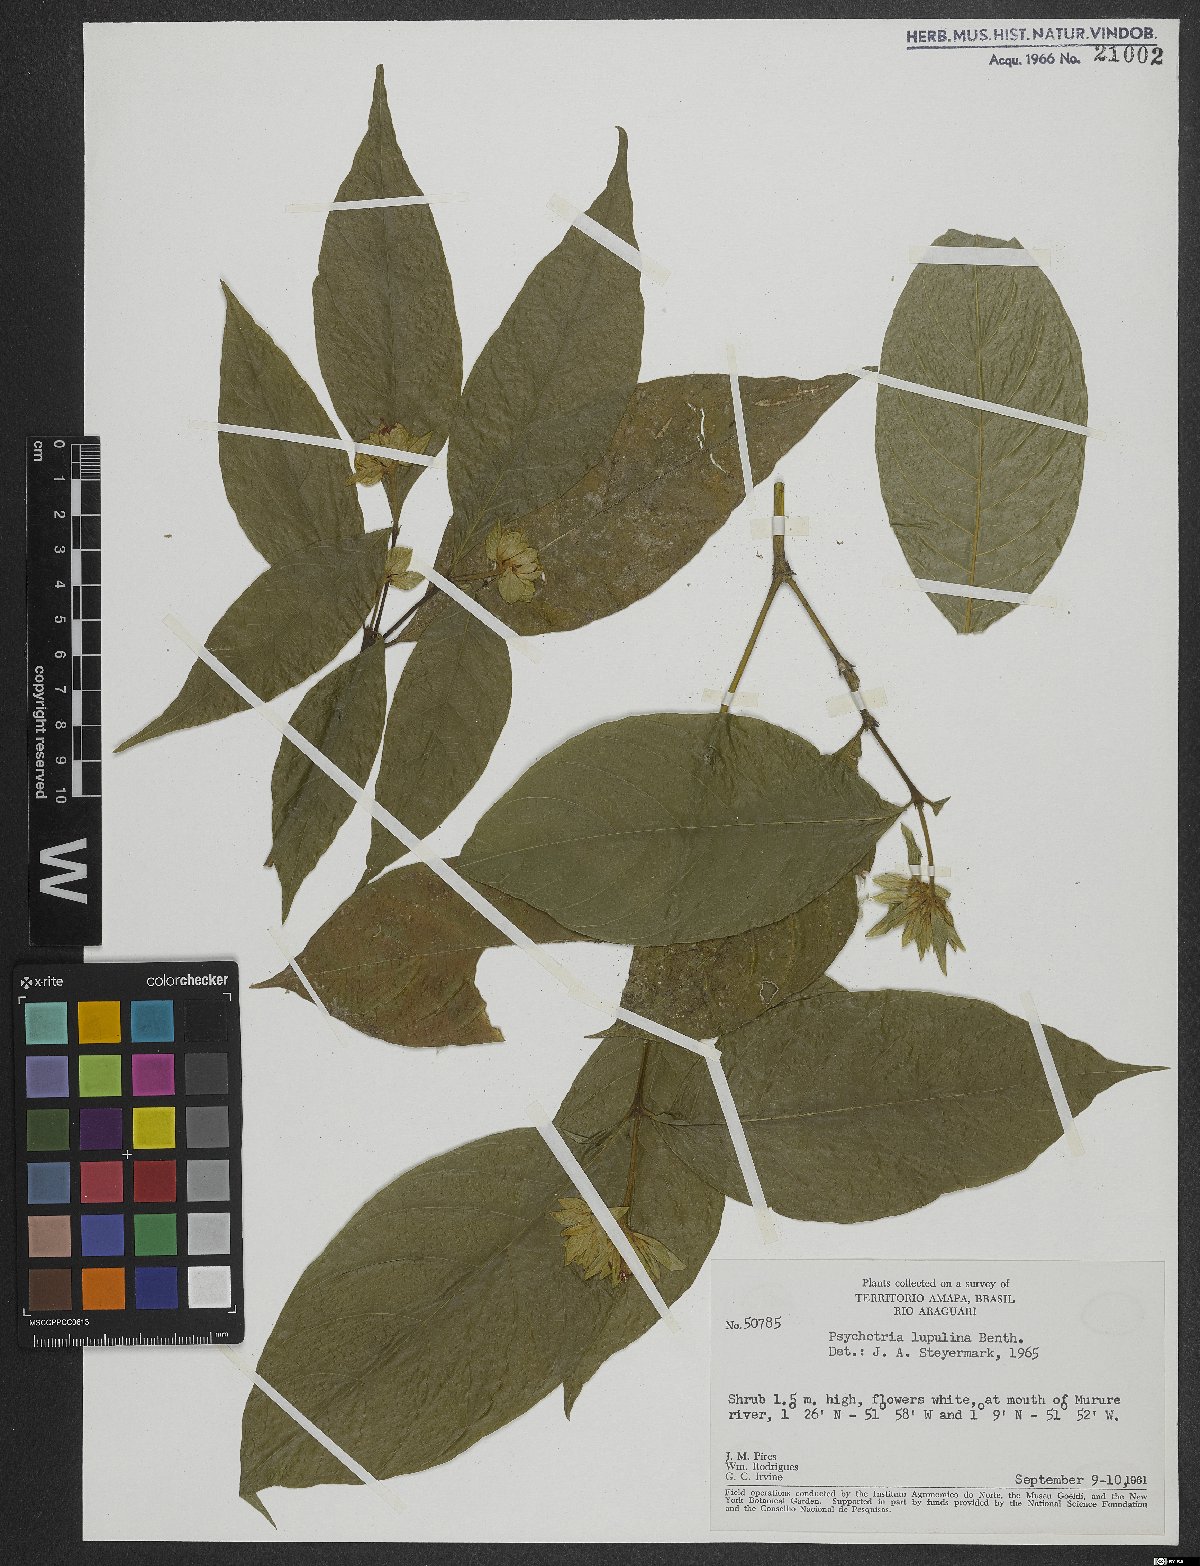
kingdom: Plantae
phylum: Tracheophyta
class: Magnoliopsida
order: Gentianales
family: Rubiaceae
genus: Palicourea
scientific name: Palicourea justiciifolia
